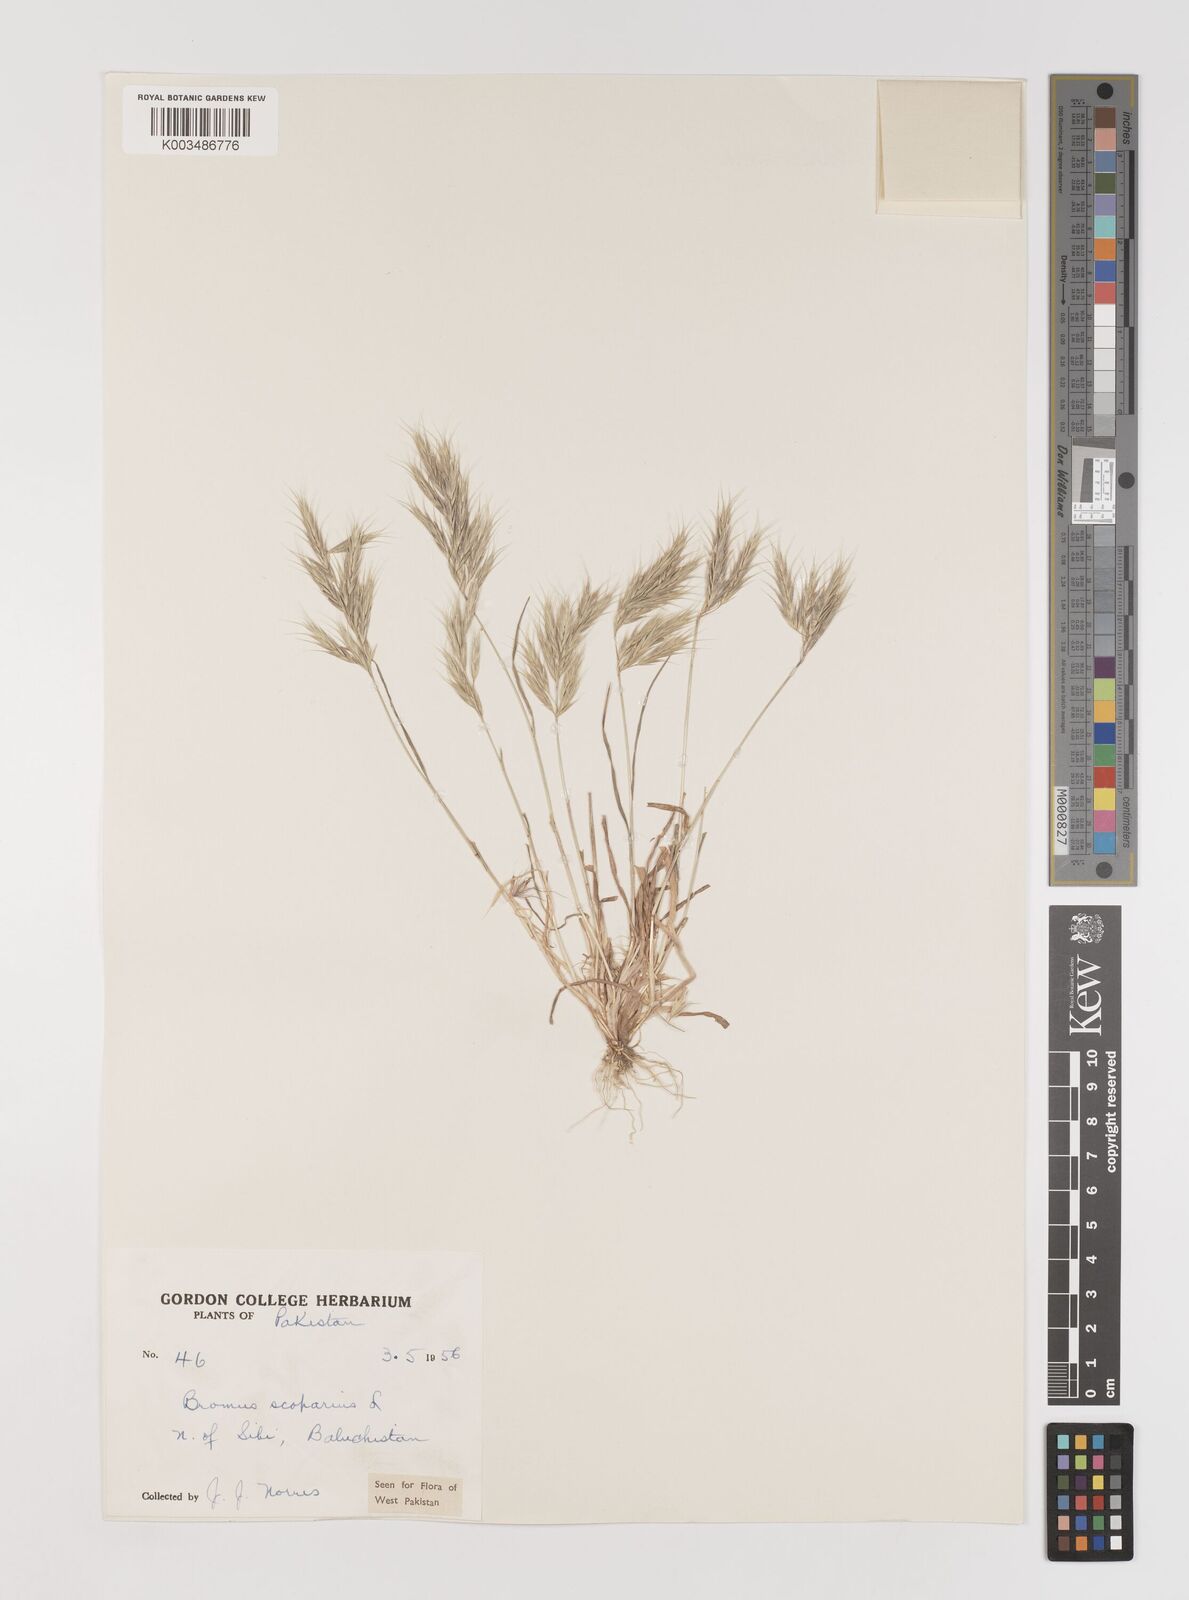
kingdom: Plantae
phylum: Tracheophyta
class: Liliopsida
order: Poales
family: Poaceae
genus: Bromus
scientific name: Bromus scoparius
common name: Broom brome
